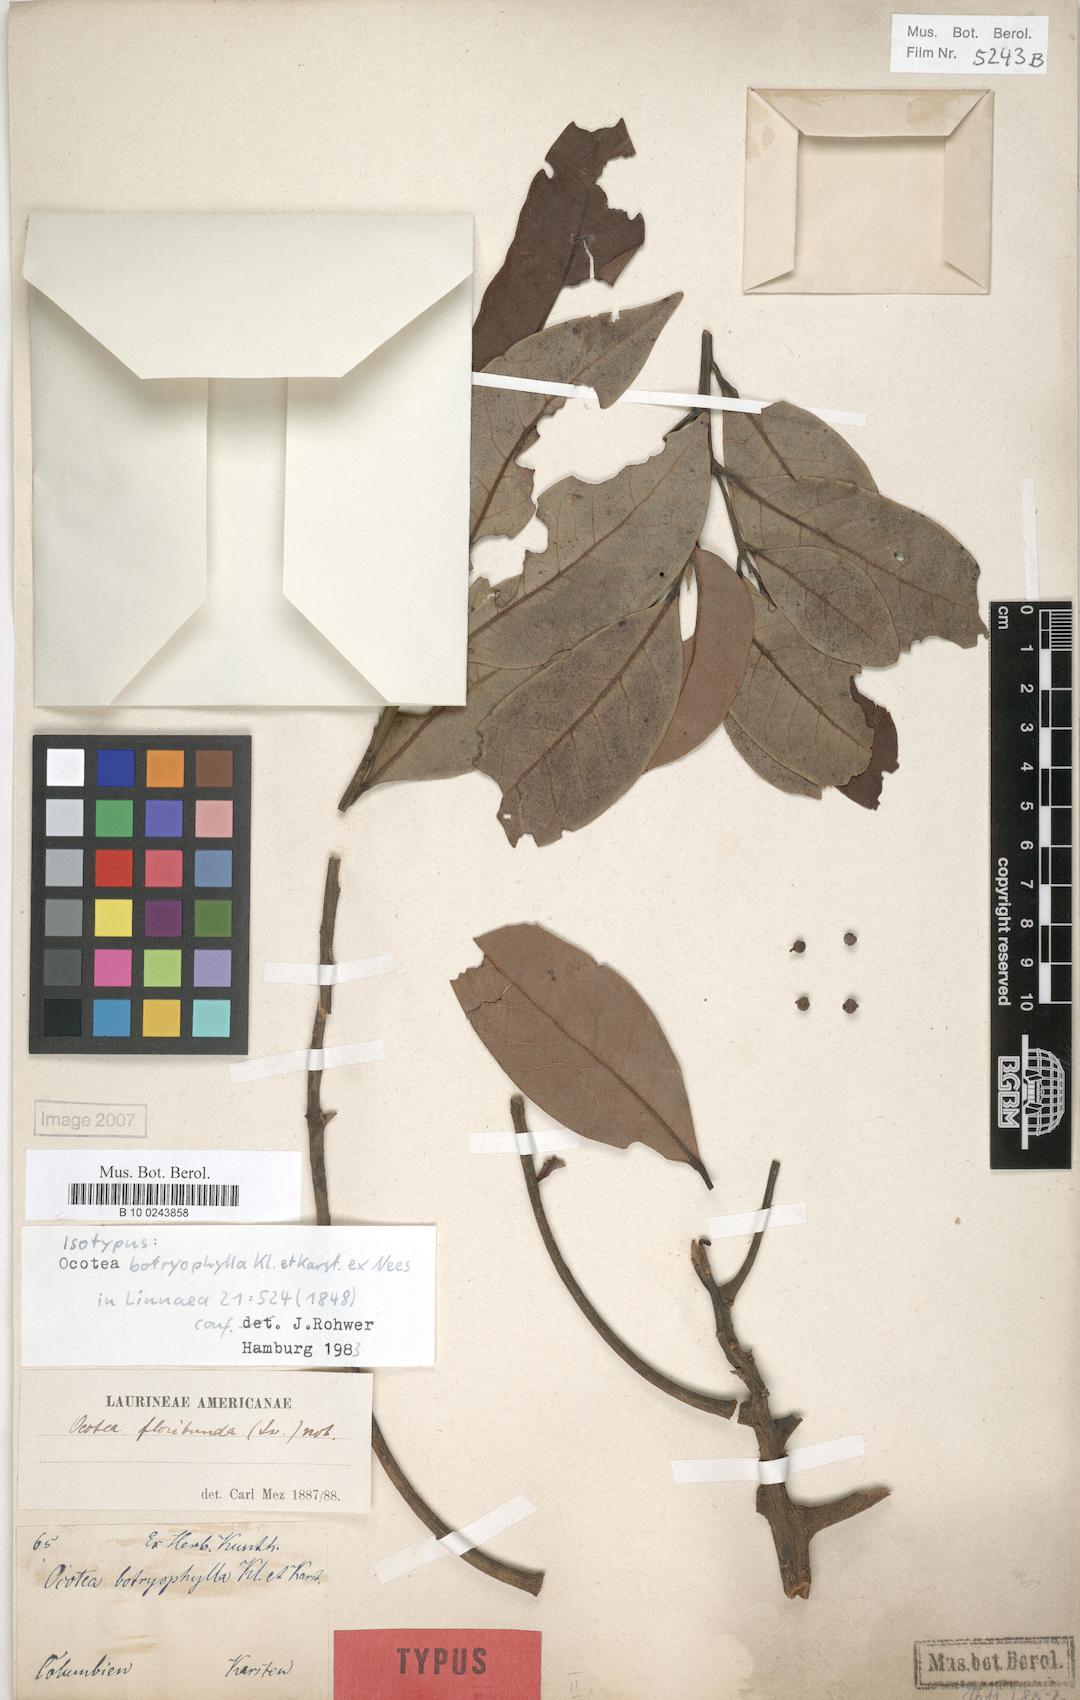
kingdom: Plantae
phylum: Tracheophyta
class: Magnoliopsida
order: Laurales
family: Lauraceae
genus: Ocotea
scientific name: Ocotea floribunda
